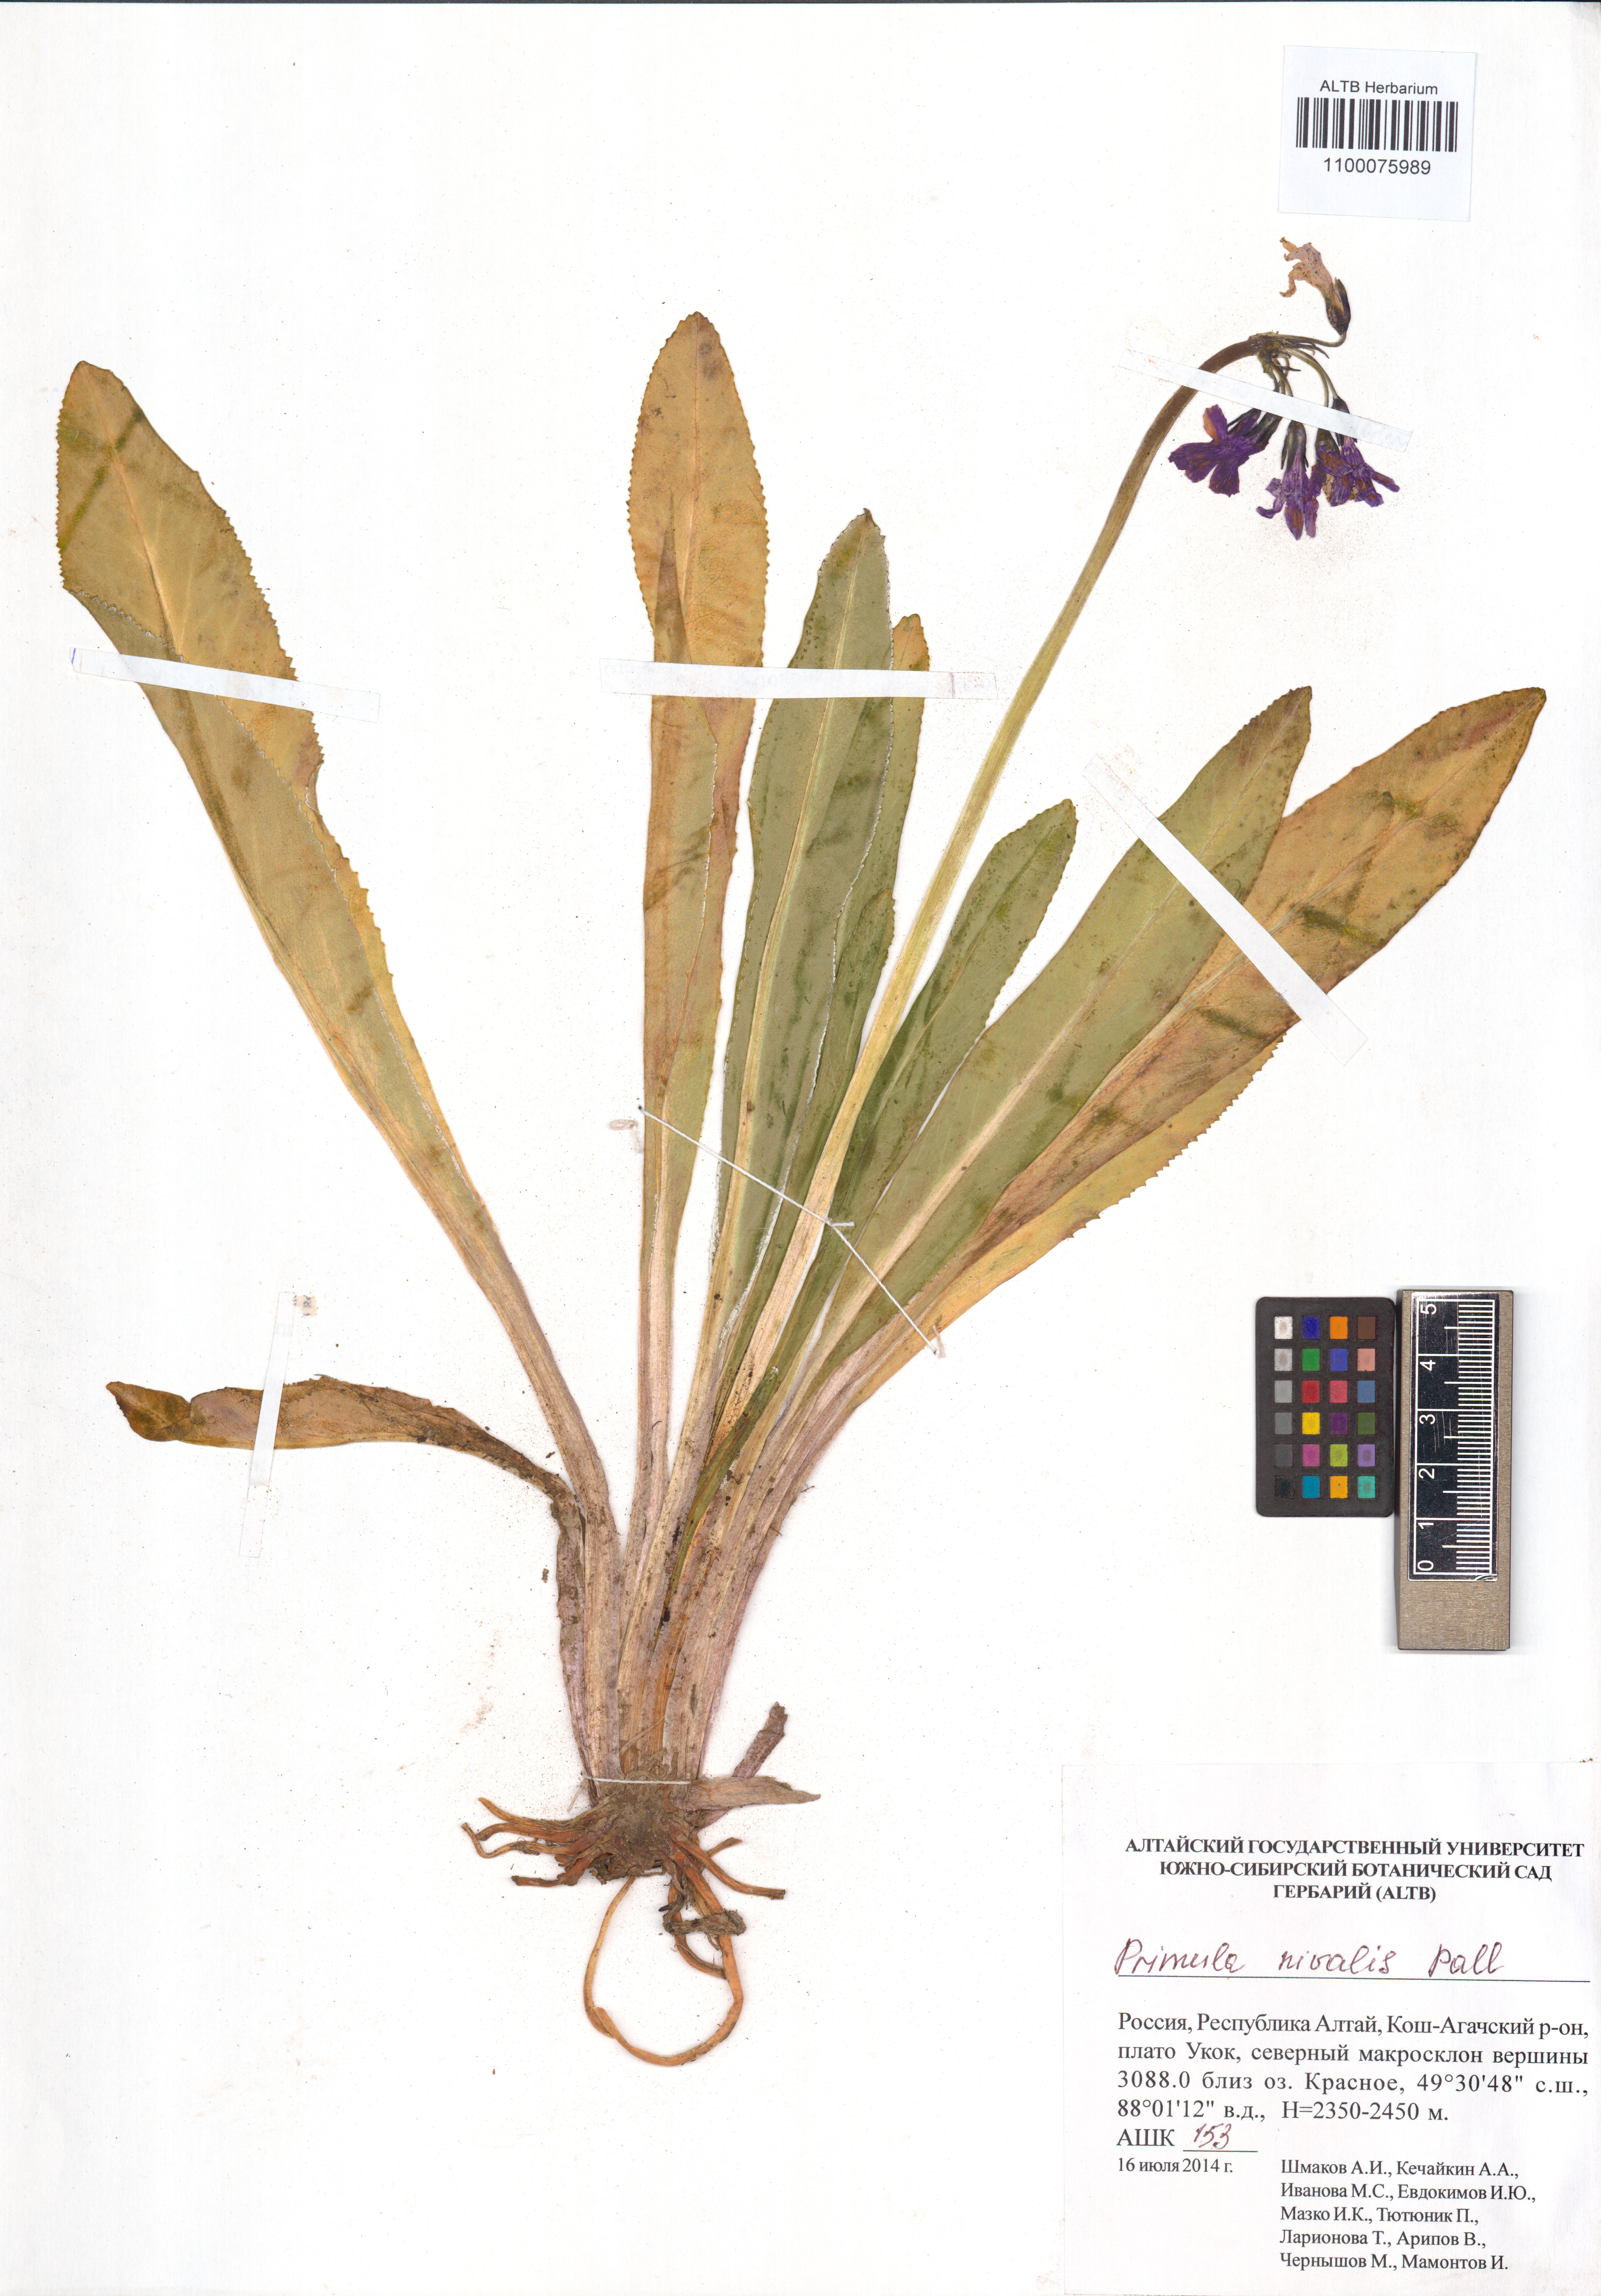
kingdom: Plantae
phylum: Tracheophyta
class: Magnoliopsida
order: Ericales
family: Primulaceae
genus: Primula
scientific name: Primula nivalis
